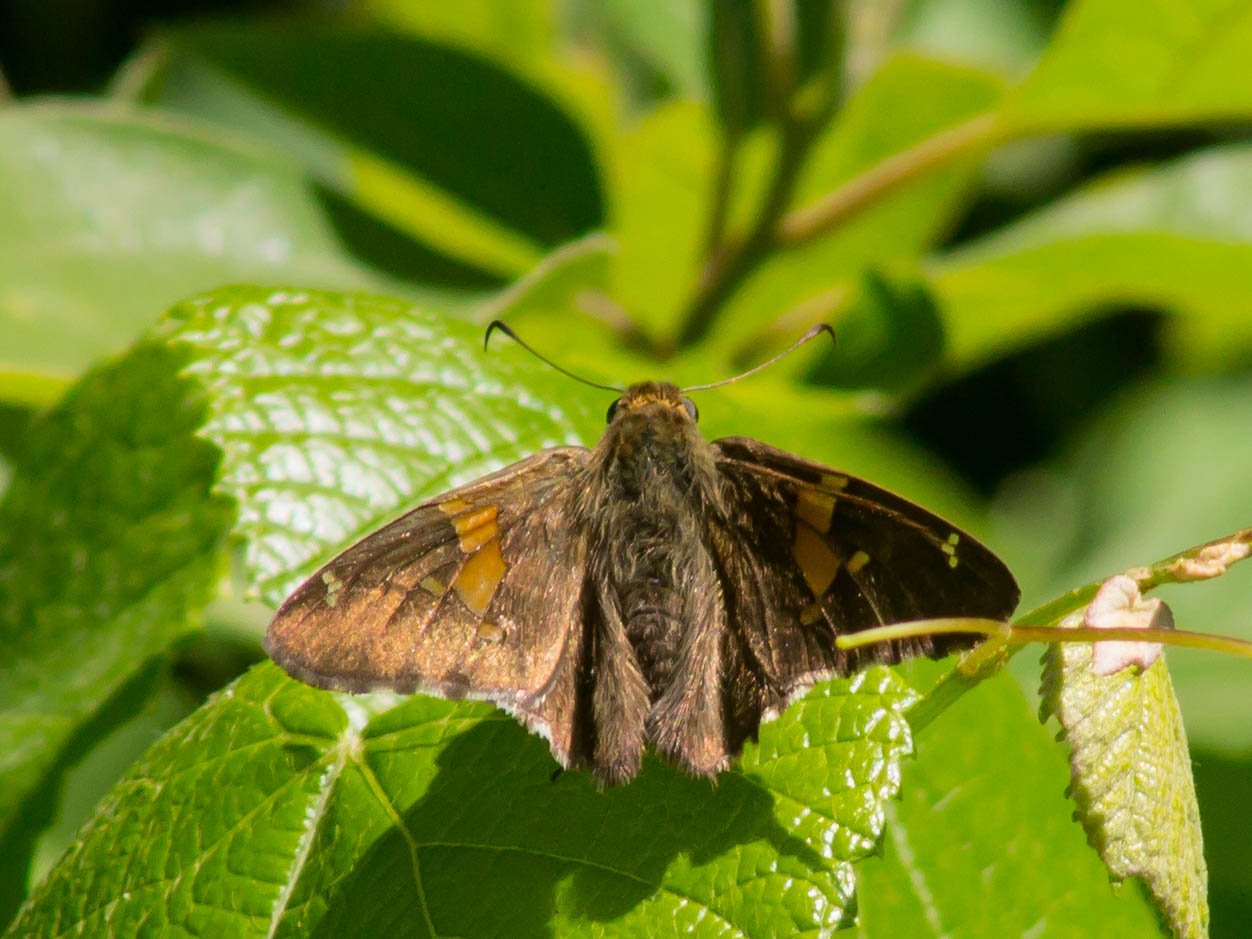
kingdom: Animalia
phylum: Arthropoda
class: Insecta
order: Lepidoptera
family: Hesperiidae
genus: Epargyreus
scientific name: Epargyreus clarus
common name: Silver-spotted Skipper
